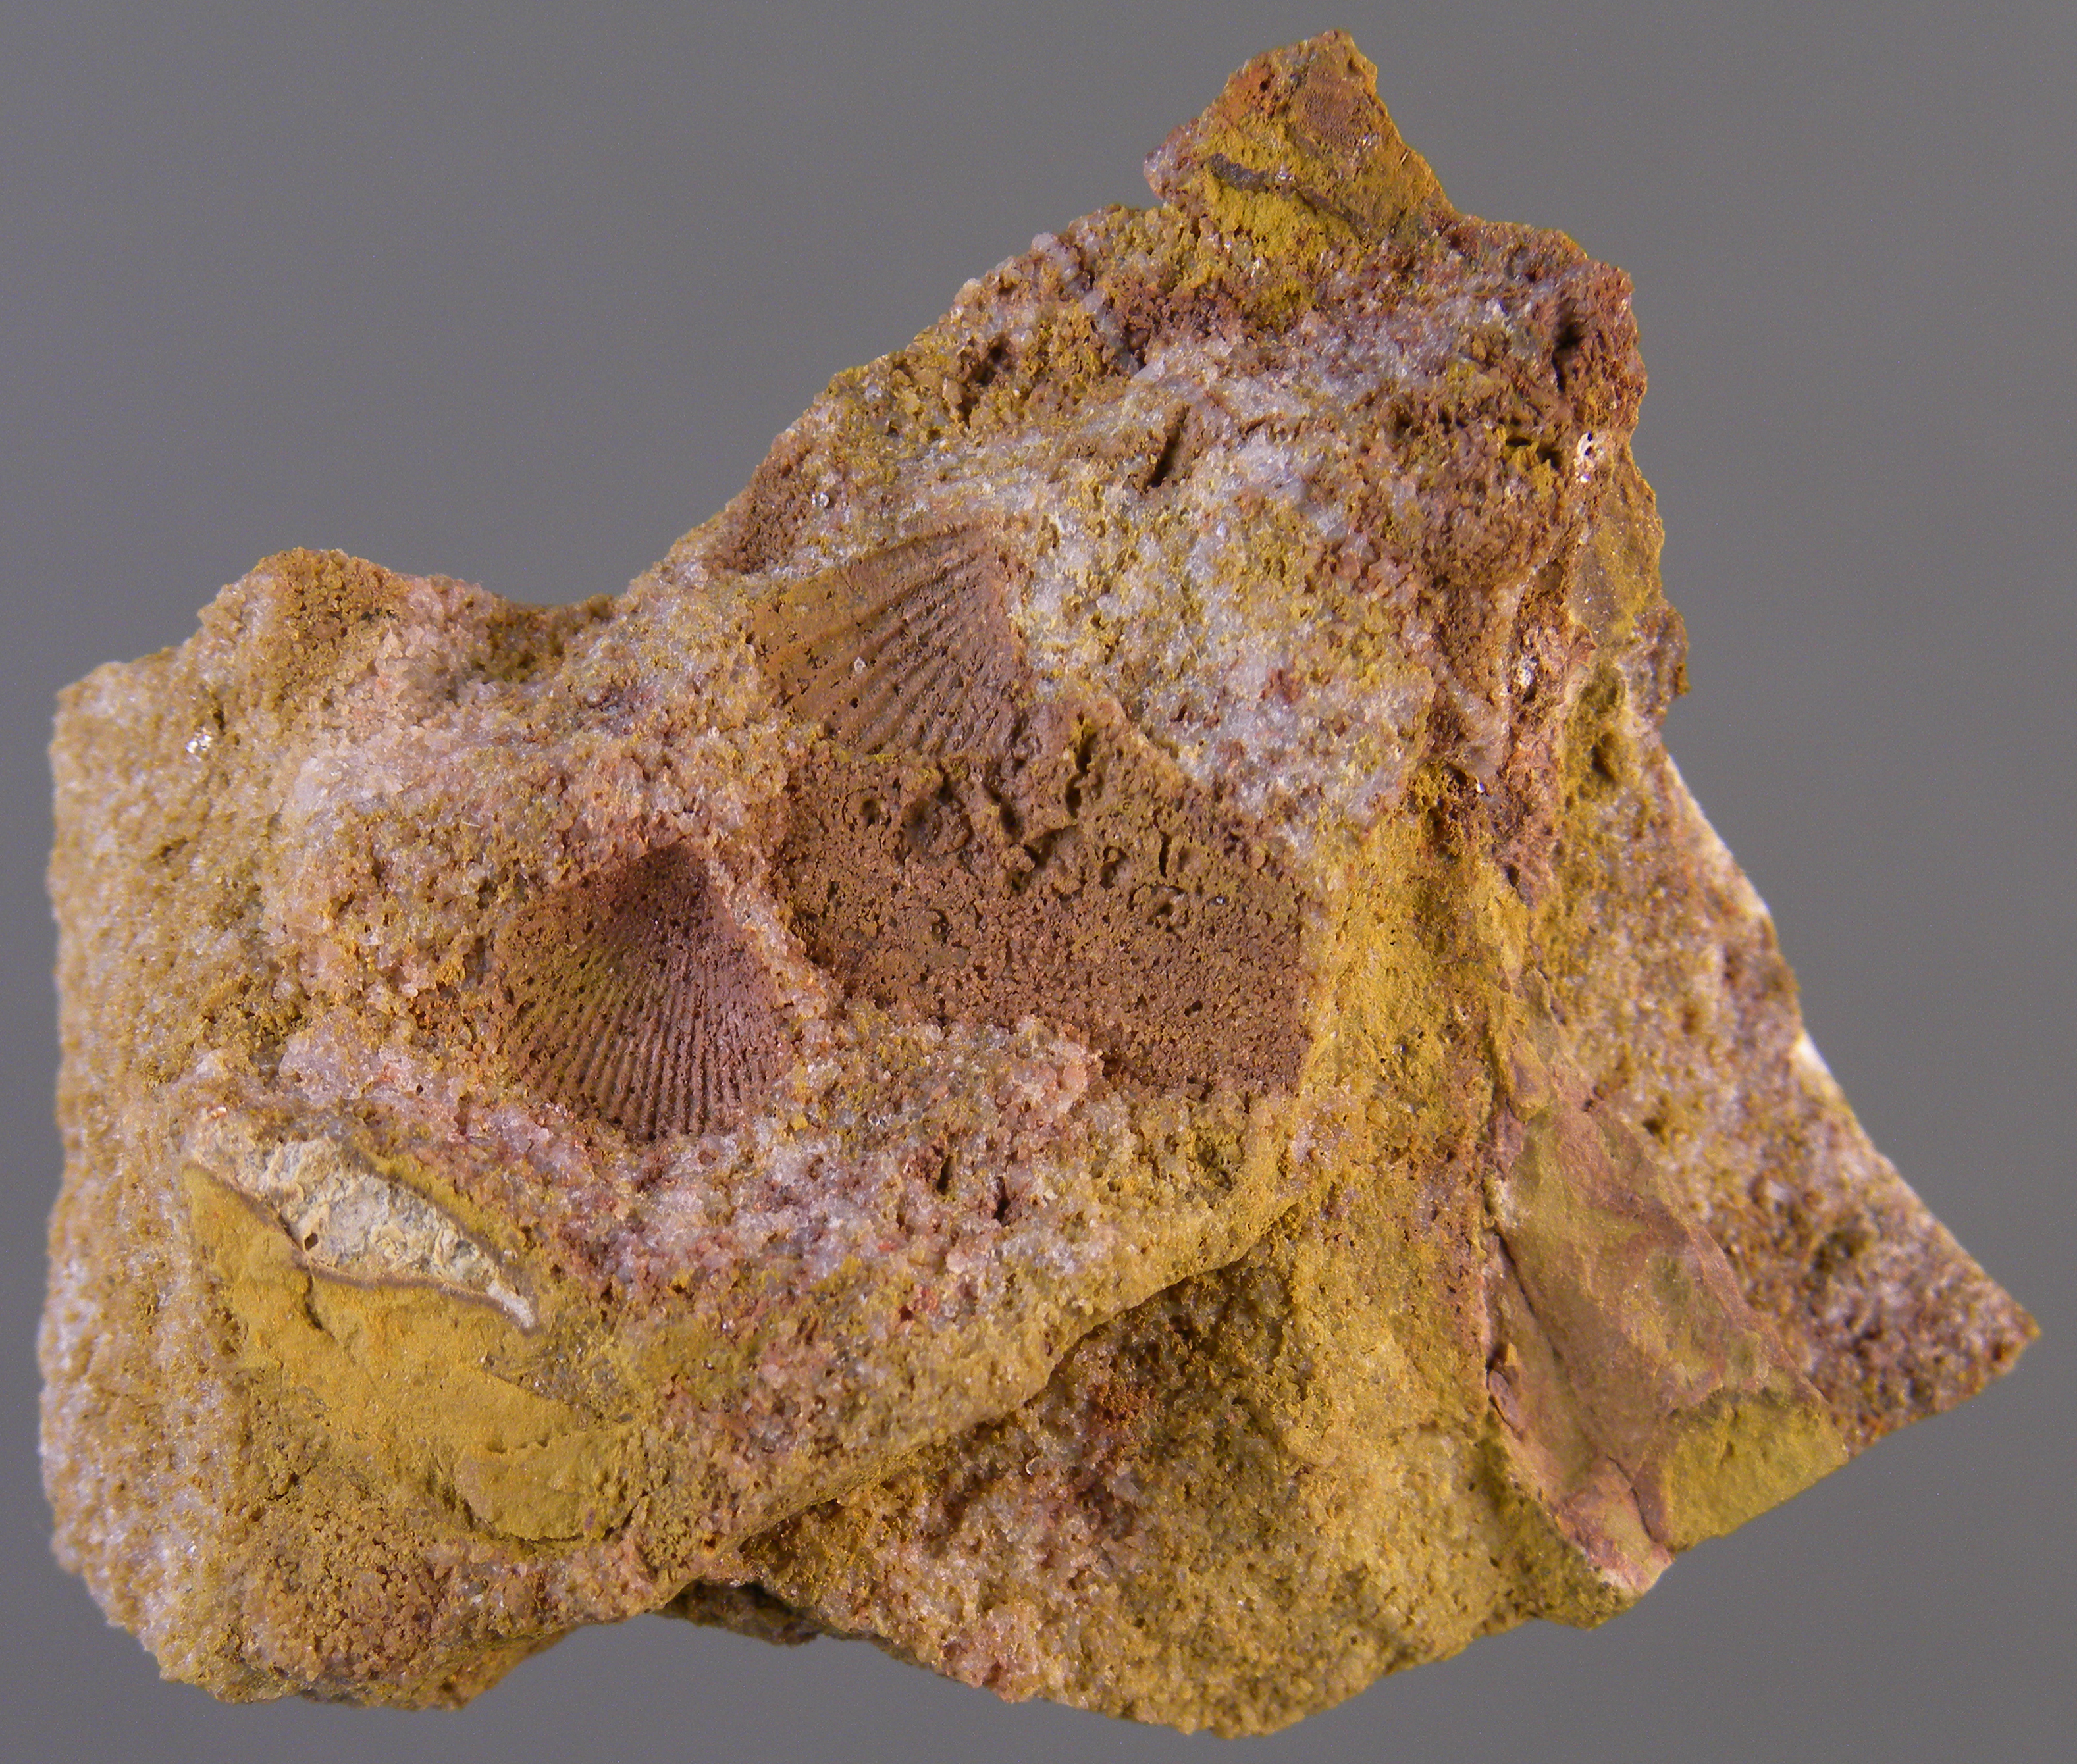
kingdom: Animalia
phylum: Brachiopoda
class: Rhynchonellata
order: Terebratulida
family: Mutationellidae
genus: Mutationella
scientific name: Mutationella
